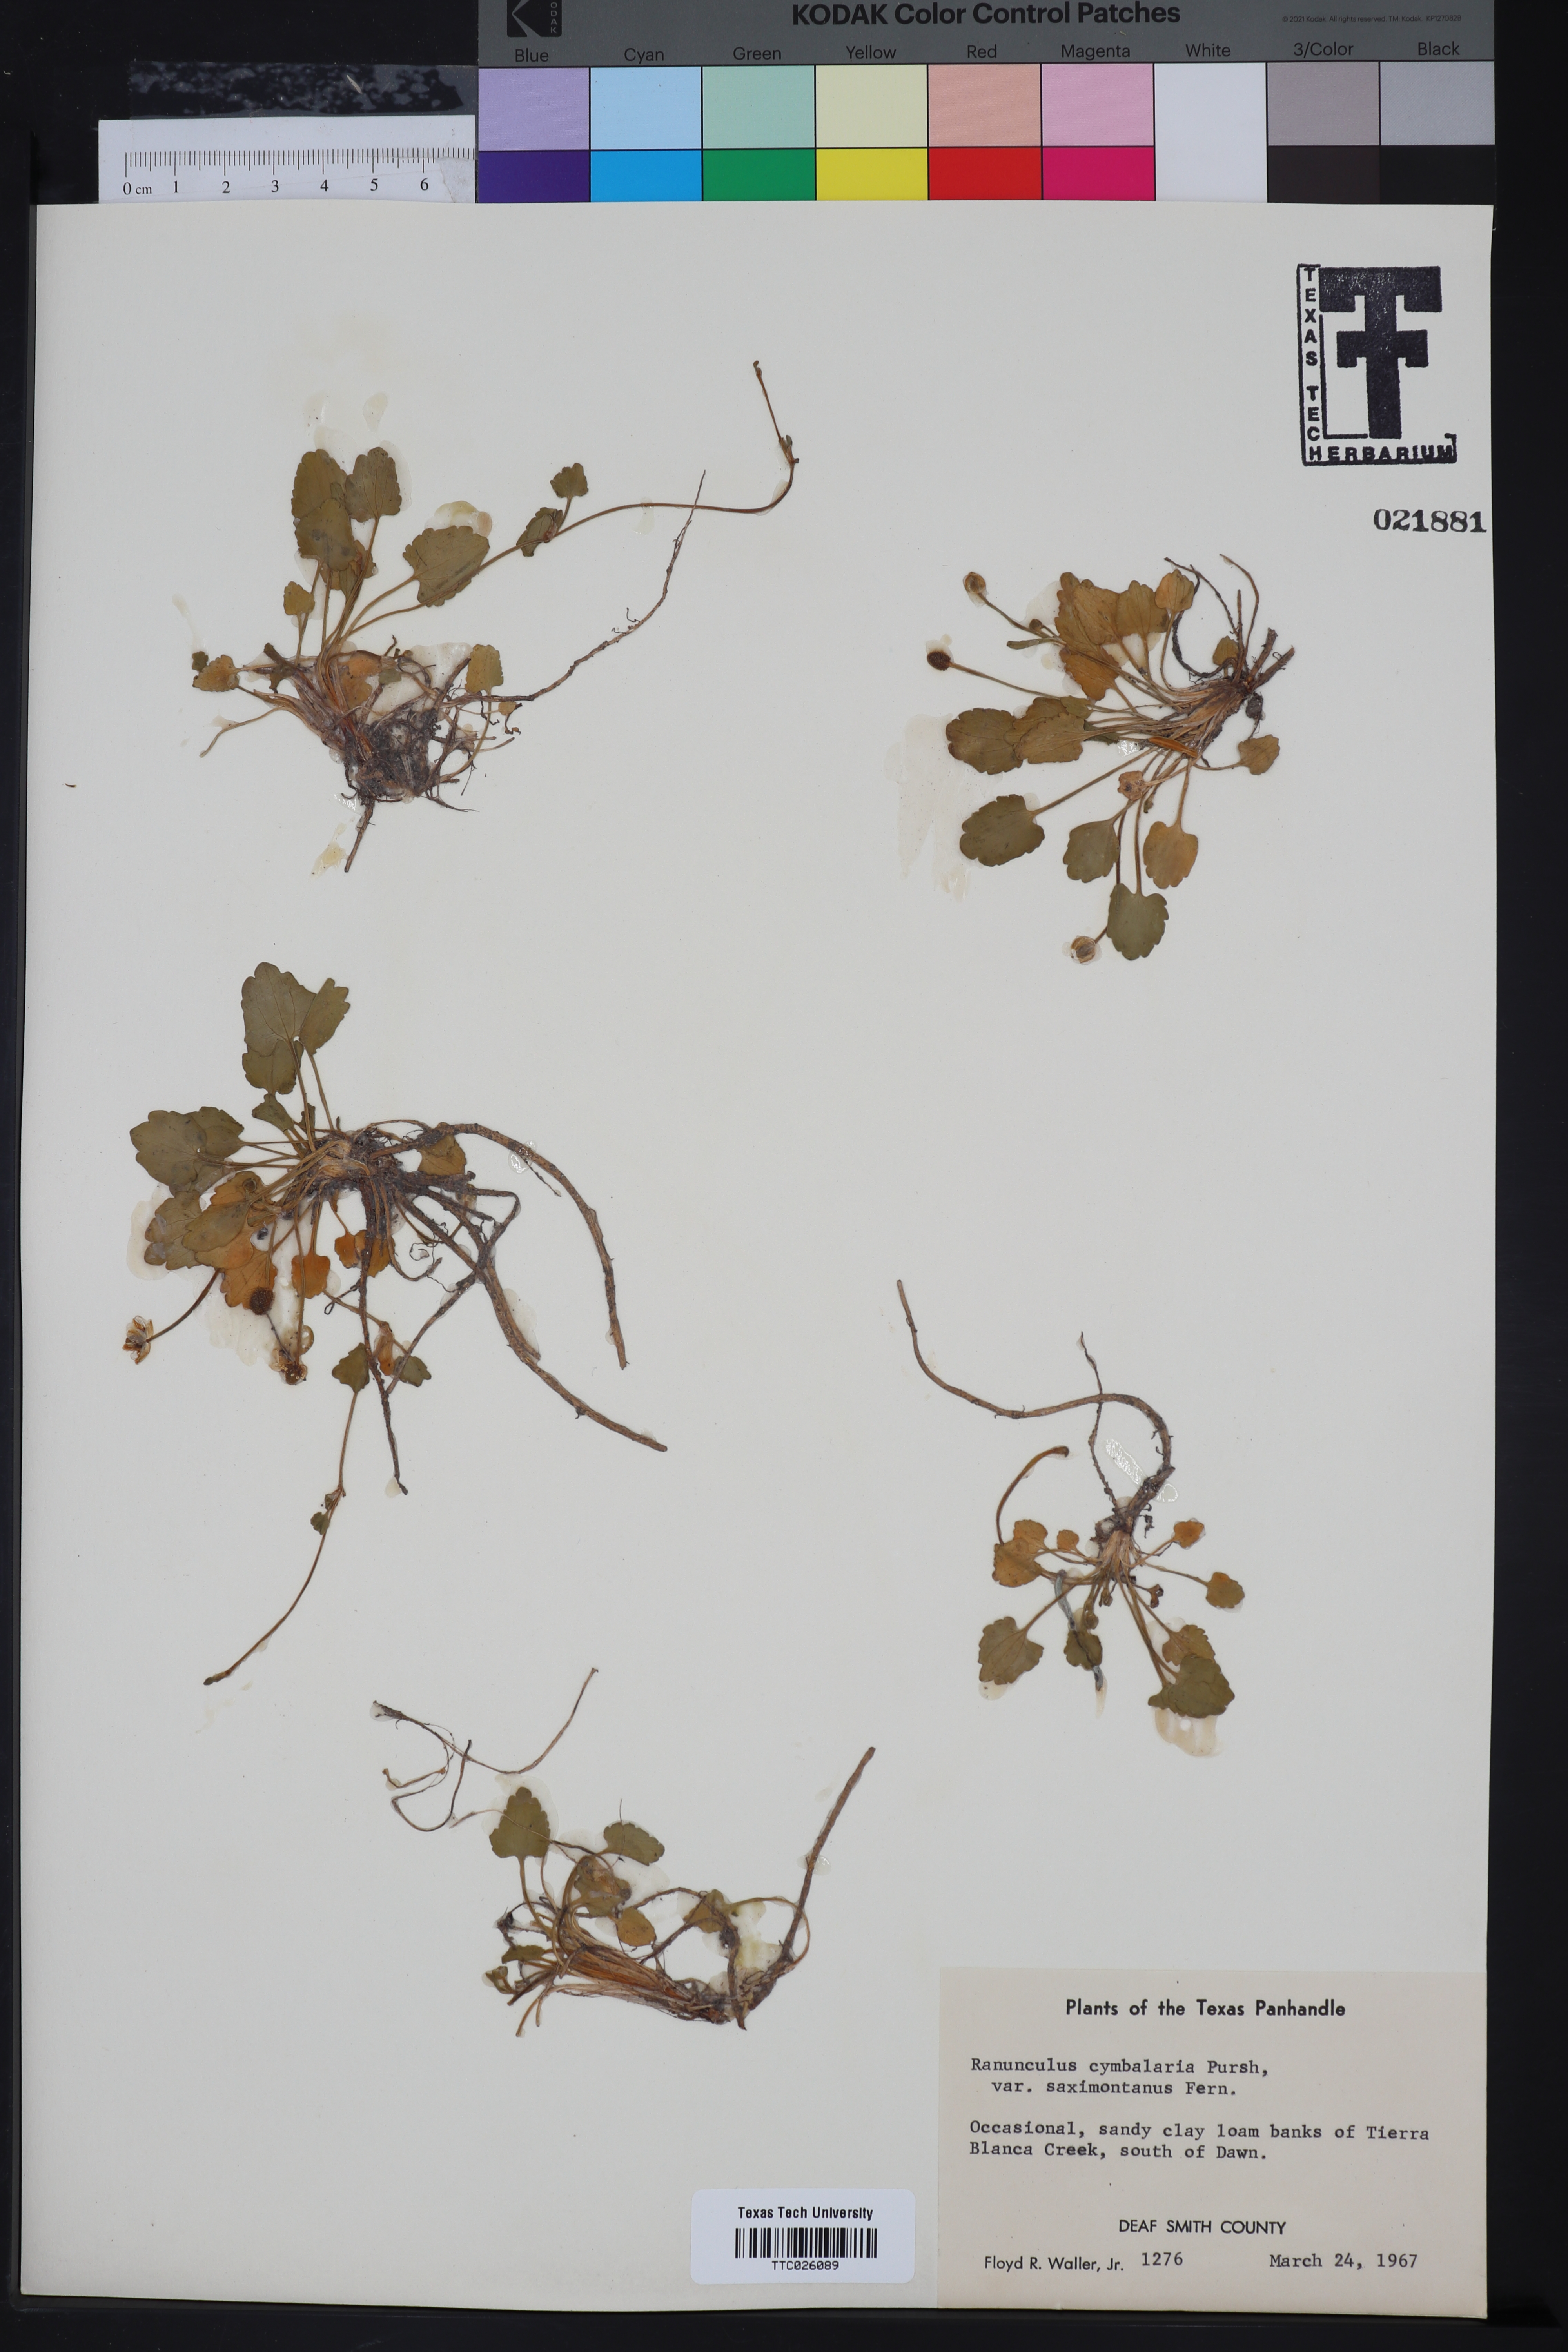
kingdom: Plantae
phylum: Tracheophyta
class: Magnoliopsida
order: Ranunculales
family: Ranunculaceae
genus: Halerpestes
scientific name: Halerpestes cymbalaria
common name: Seaside crowfoot
